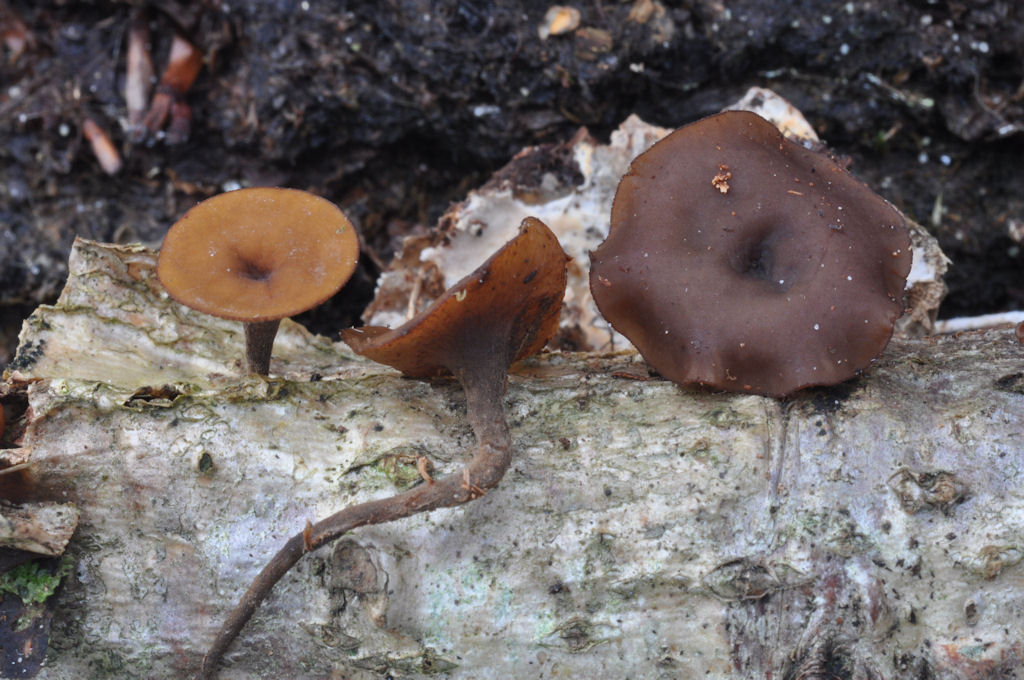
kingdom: Fungi
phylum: Ascomycota
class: Leotiomycetes
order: Helotiales
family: Rutstroemiaceae
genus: Rutstroemia
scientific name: Rutstroemia firma
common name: gren-brunskive
